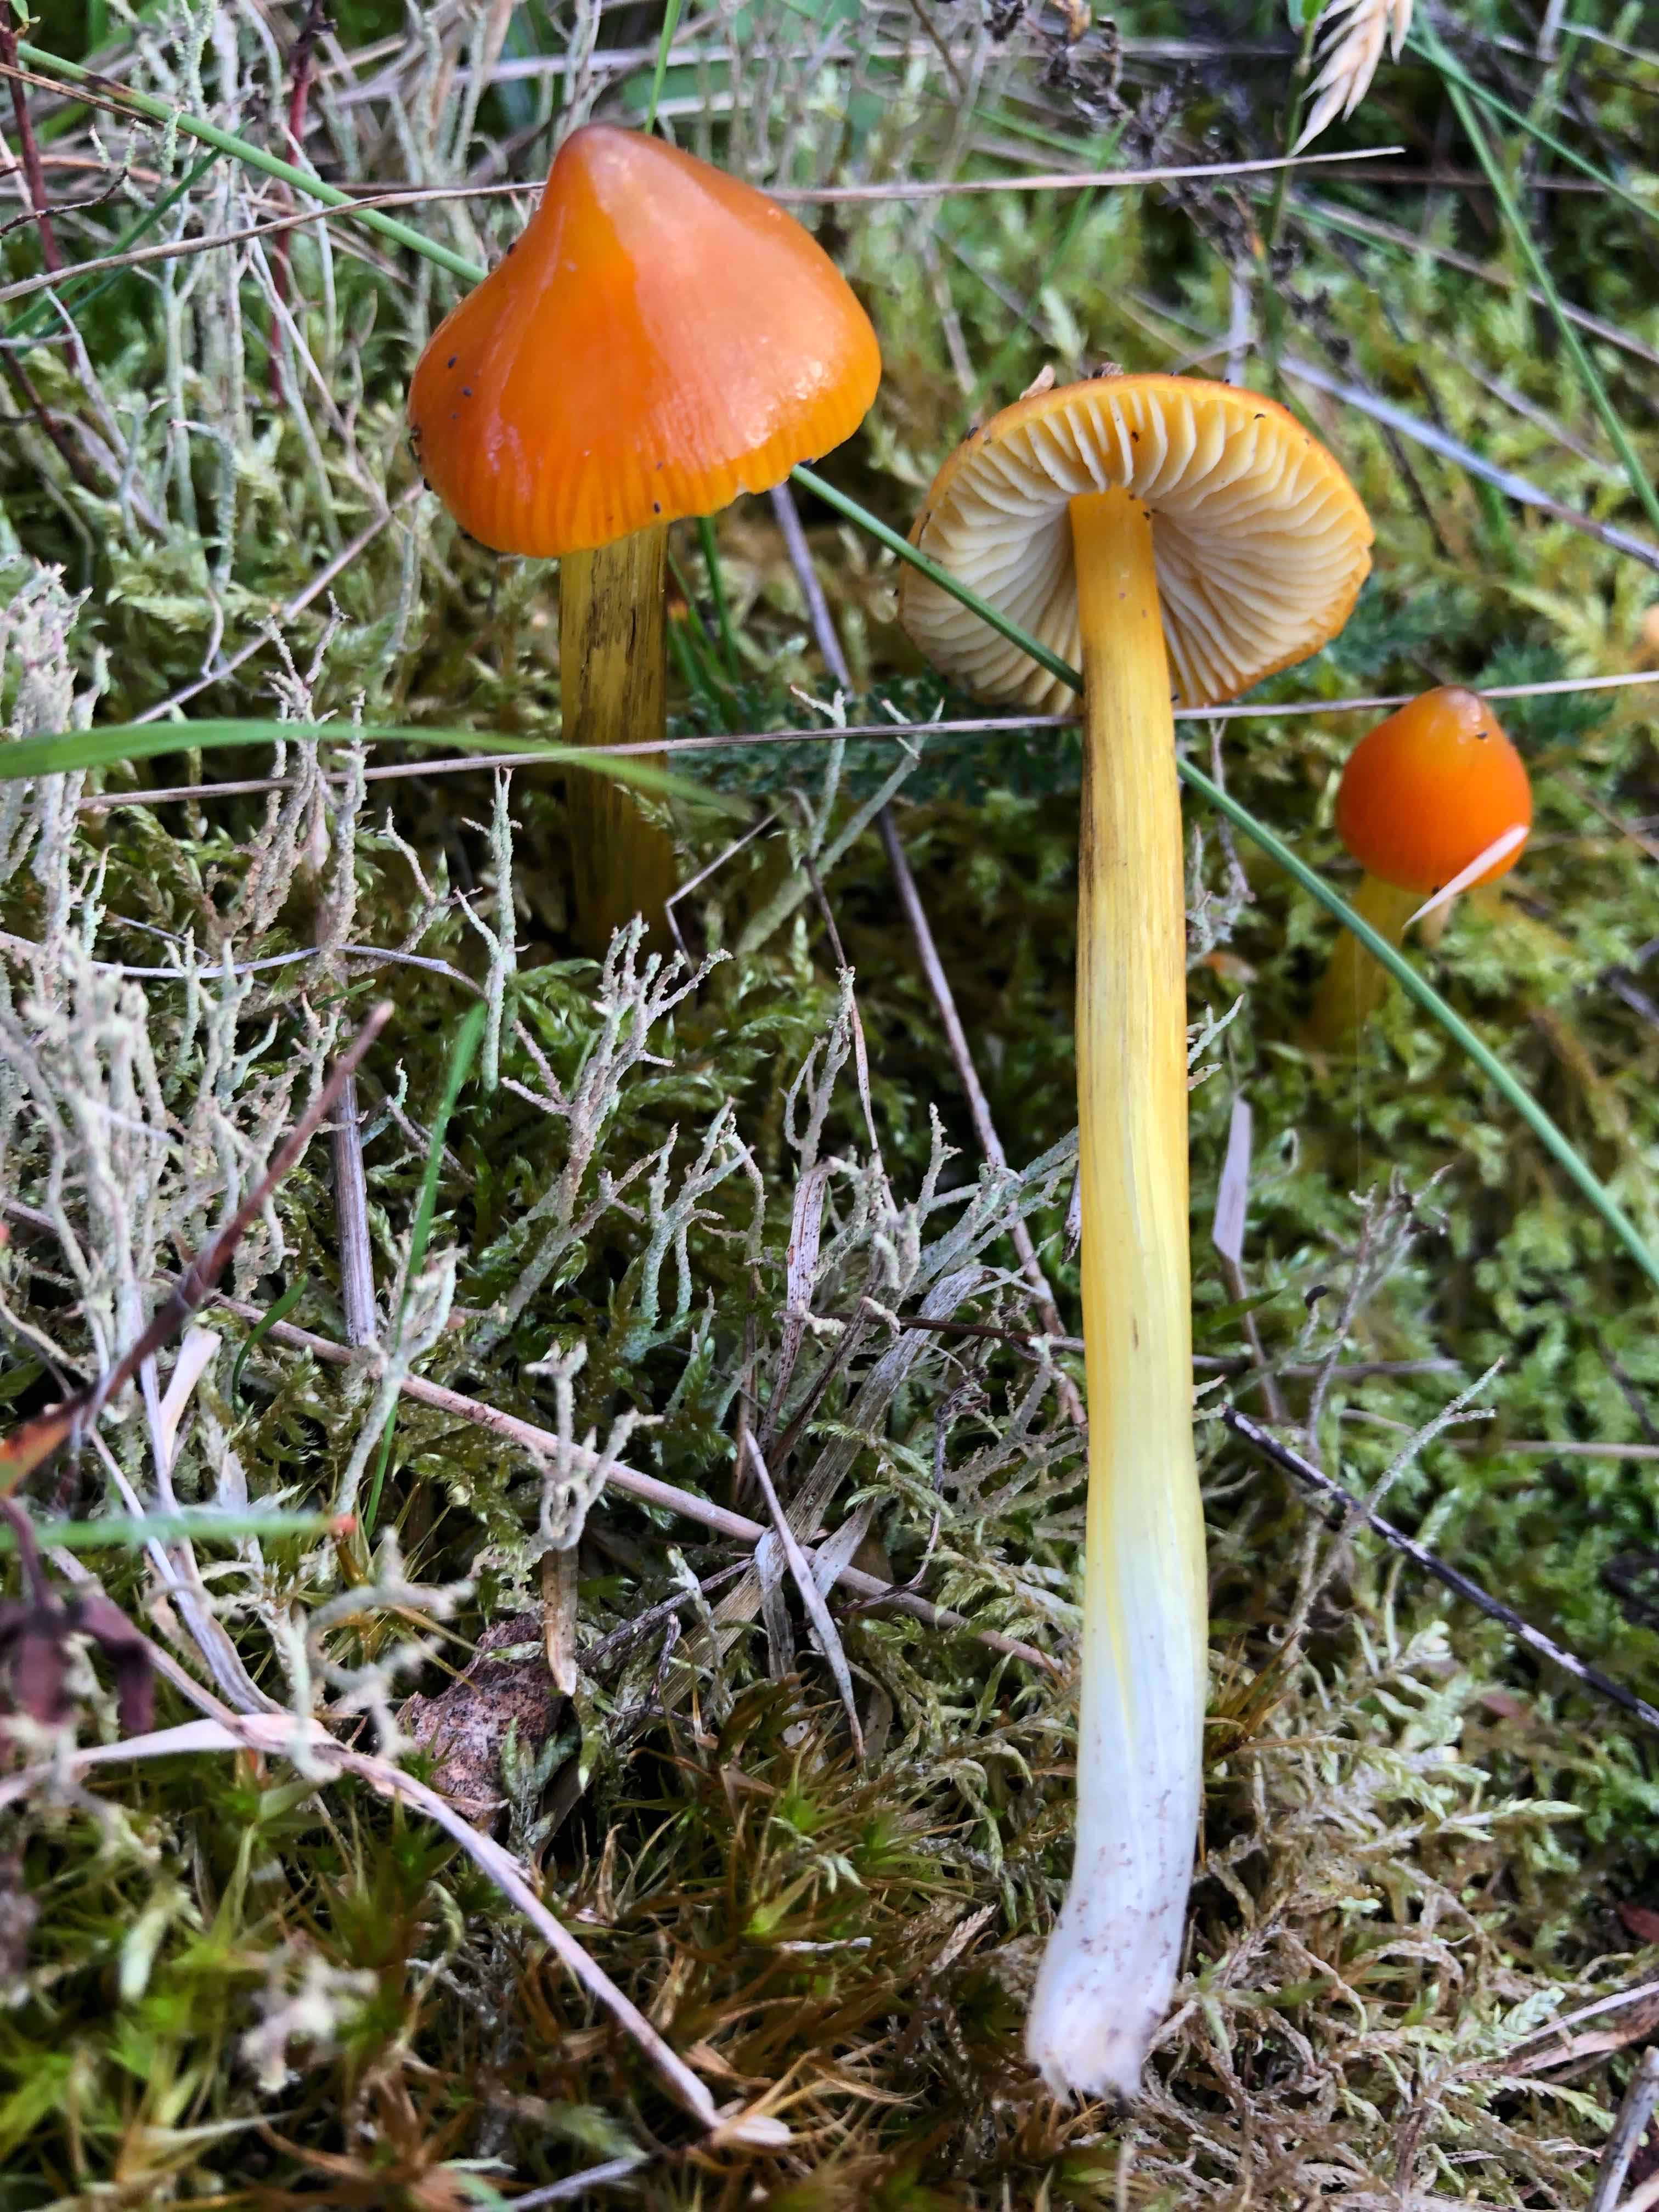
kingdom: Fungi
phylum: Basidiomycota
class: Agaricomycetes
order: Agaricales
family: Hygrophoraceae
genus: Hygrocybe
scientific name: Hygrocybe conica
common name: kegle-vokshat
